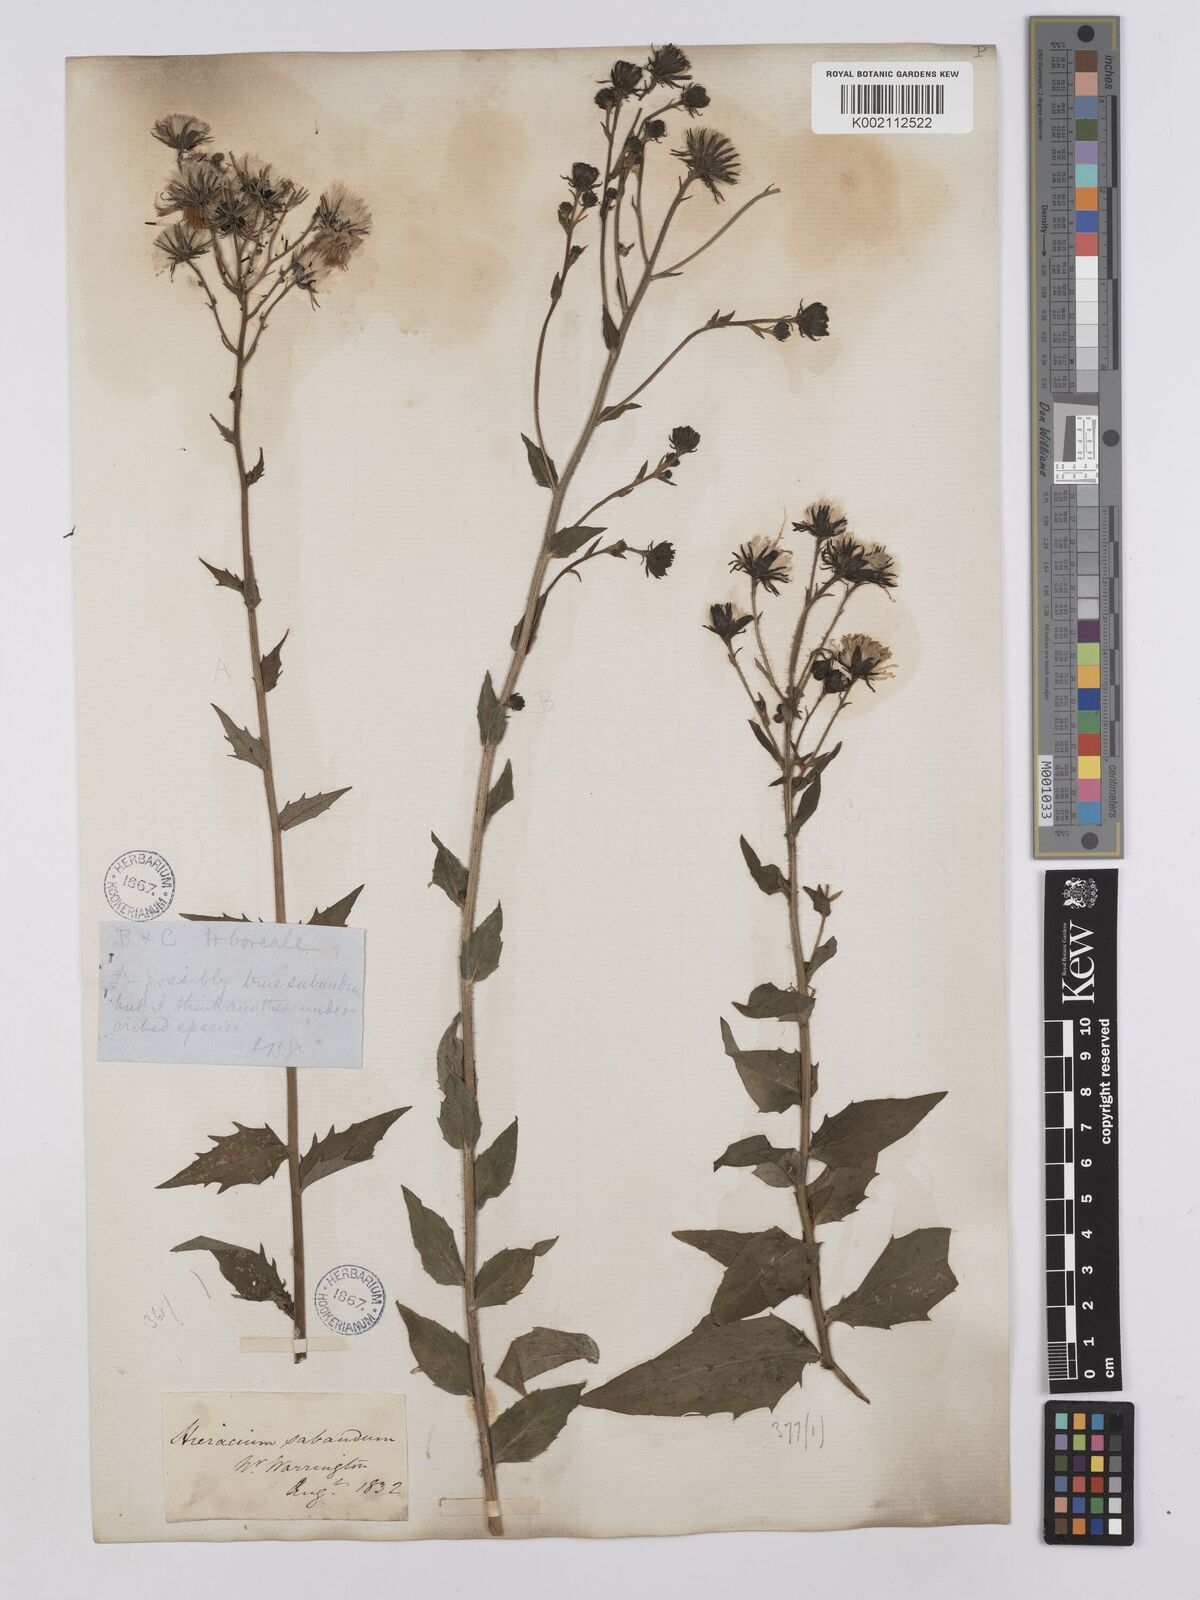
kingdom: Plantae
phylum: Tracheophyta
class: Magnoliopsida
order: Asterales
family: Asteraceae
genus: Hieracium
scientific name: Hieracium sabaudum
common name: New england hawkweed
